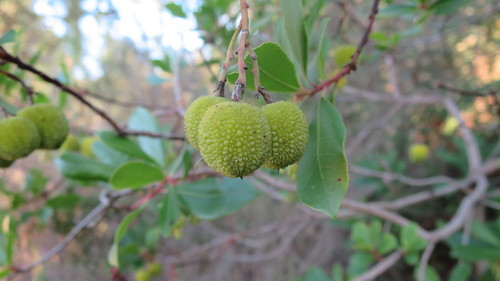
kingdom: Plantae
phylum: Tracheophyta
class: Magnoliopsida
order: Ericales
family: Ericaceae
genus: Arbutus
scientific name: Arbutus unedo
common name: Strawberry-tree
